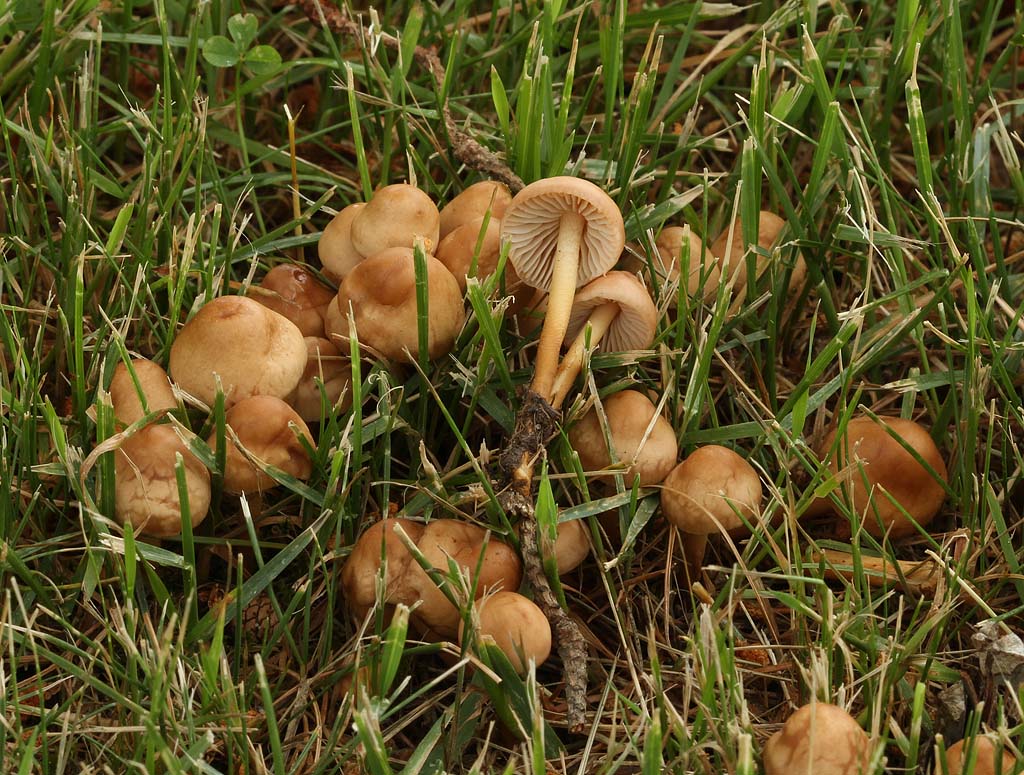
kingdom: Fungi
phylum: Basidiomycota
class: Agaricomycetes
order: Agaricales
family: Marasmiaceae
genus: Marasmius
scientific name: Marasmius oreades
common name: elledans-bruskhat
